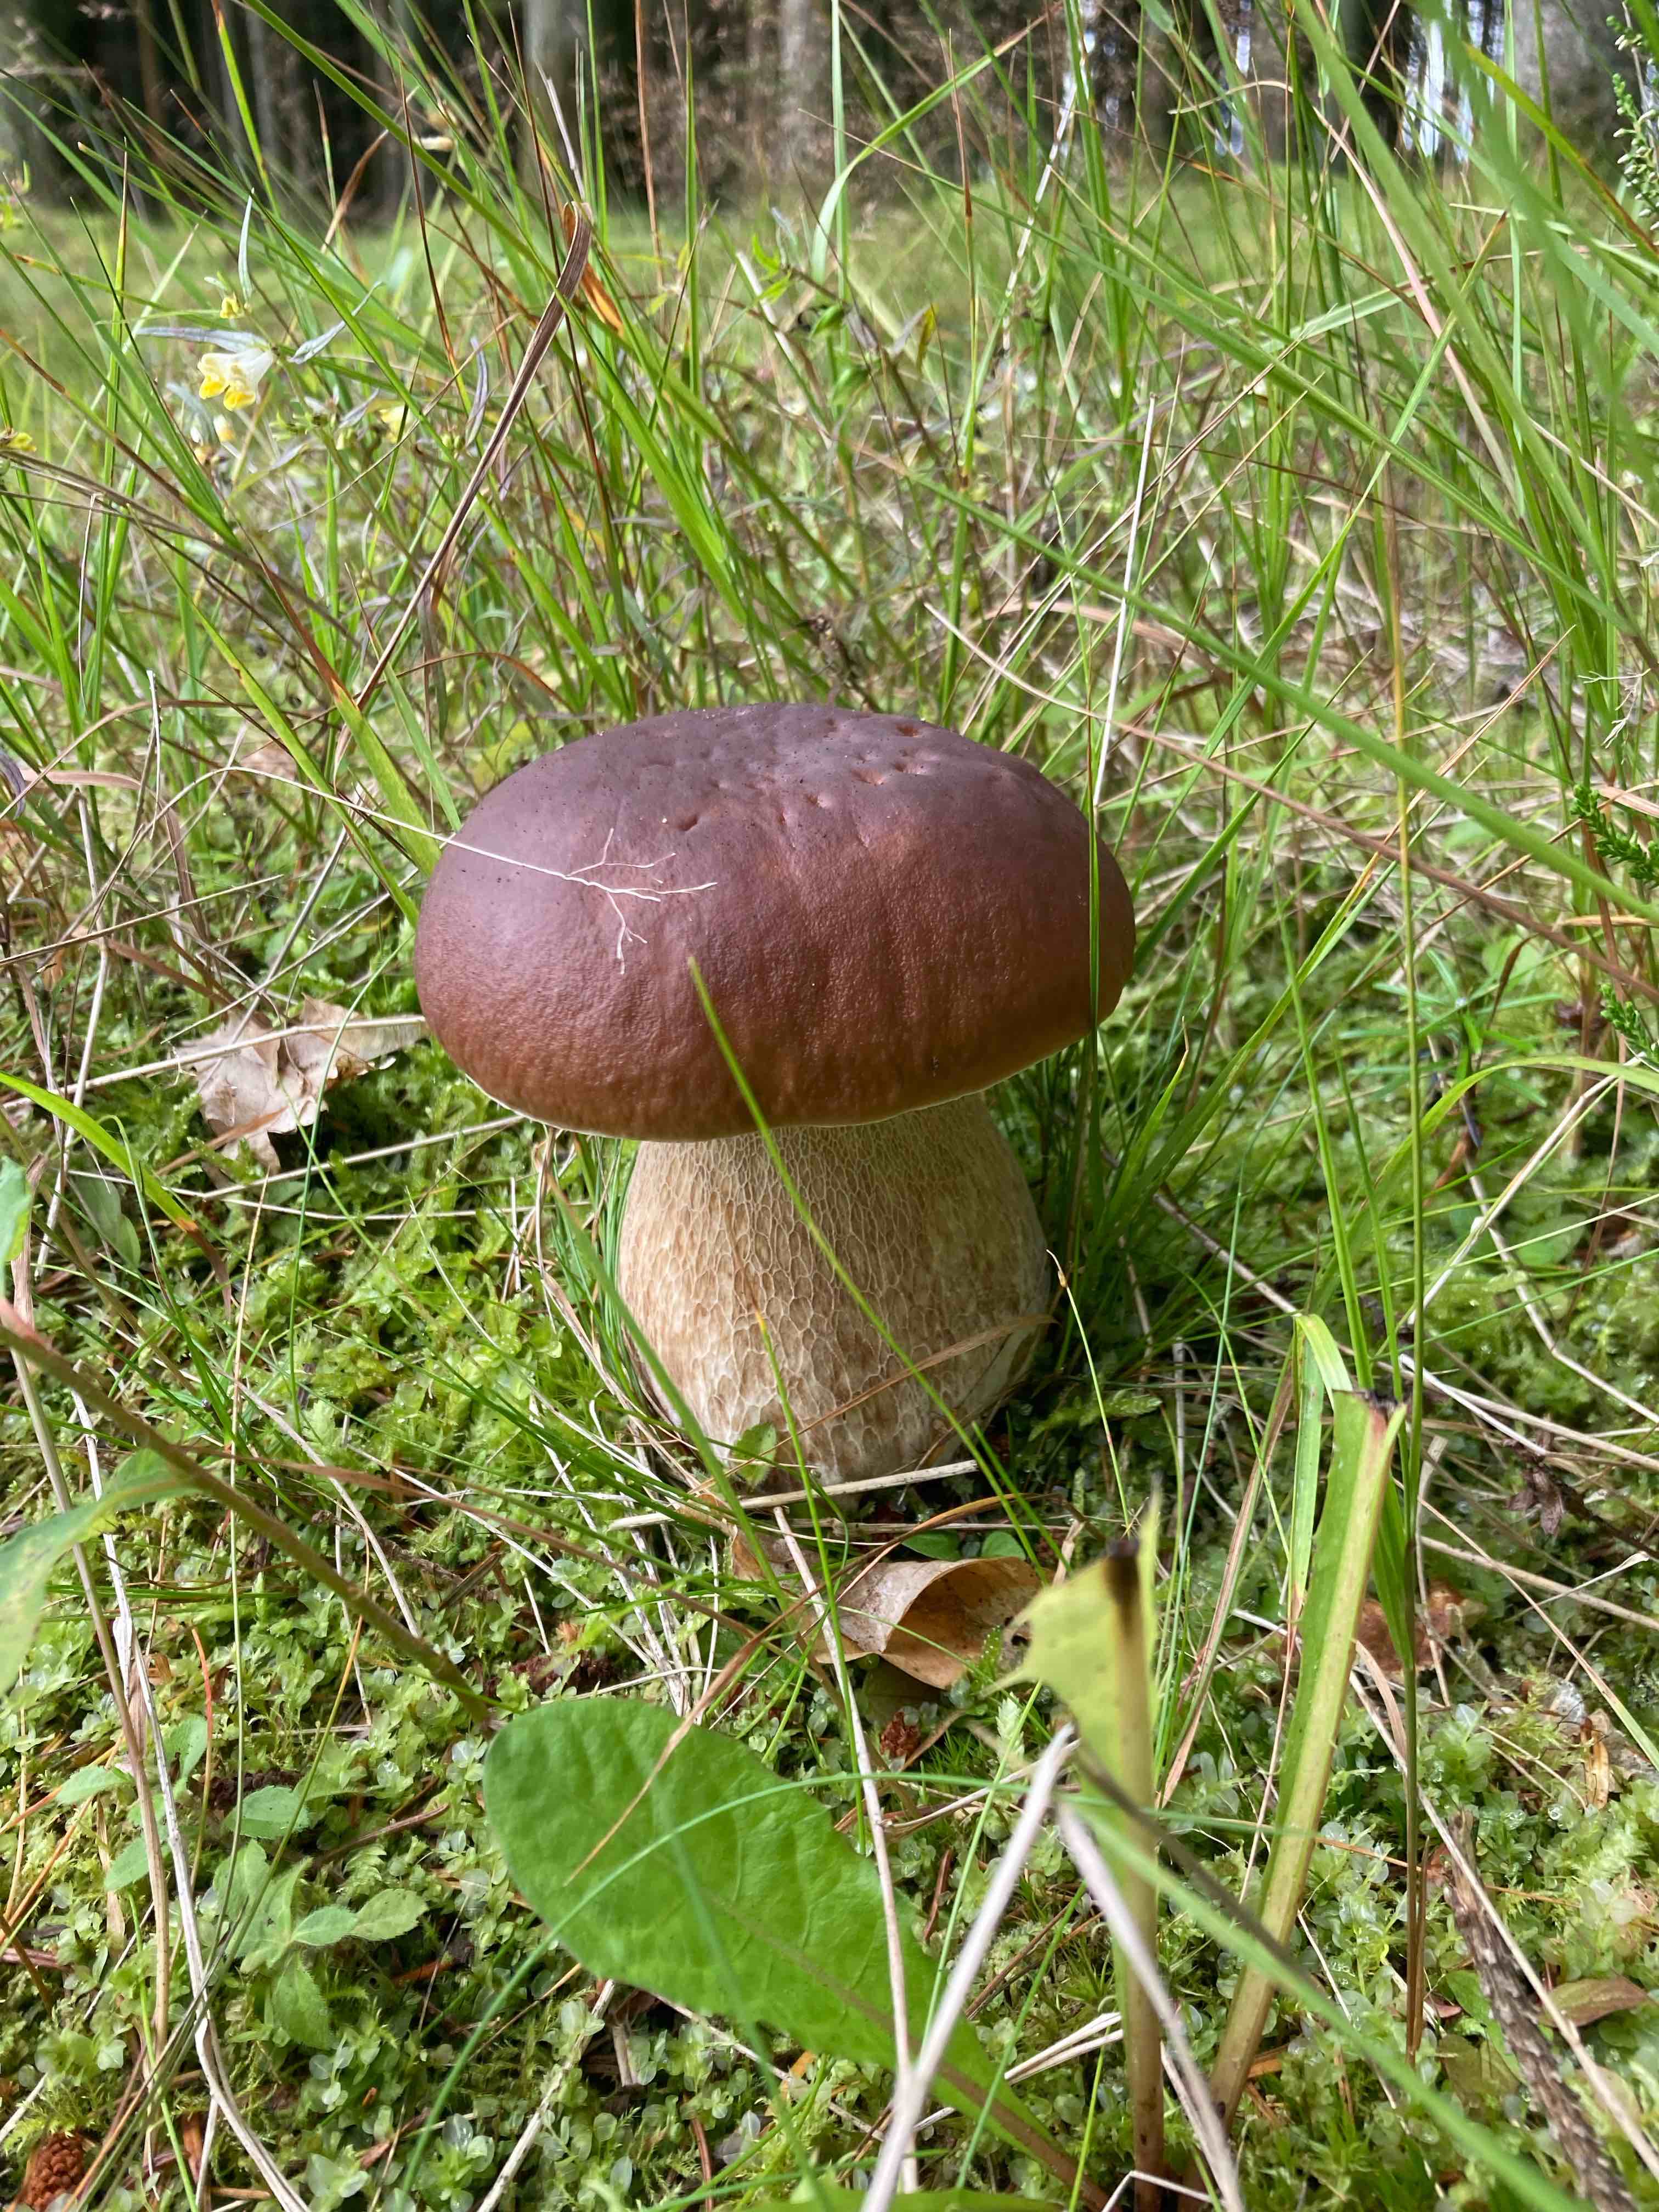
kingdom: Fungi
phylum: Basidiomycota
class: Agaricomycetes
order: Boletales
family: Boletaceae
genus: Boletus
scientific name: Boletus edulis
